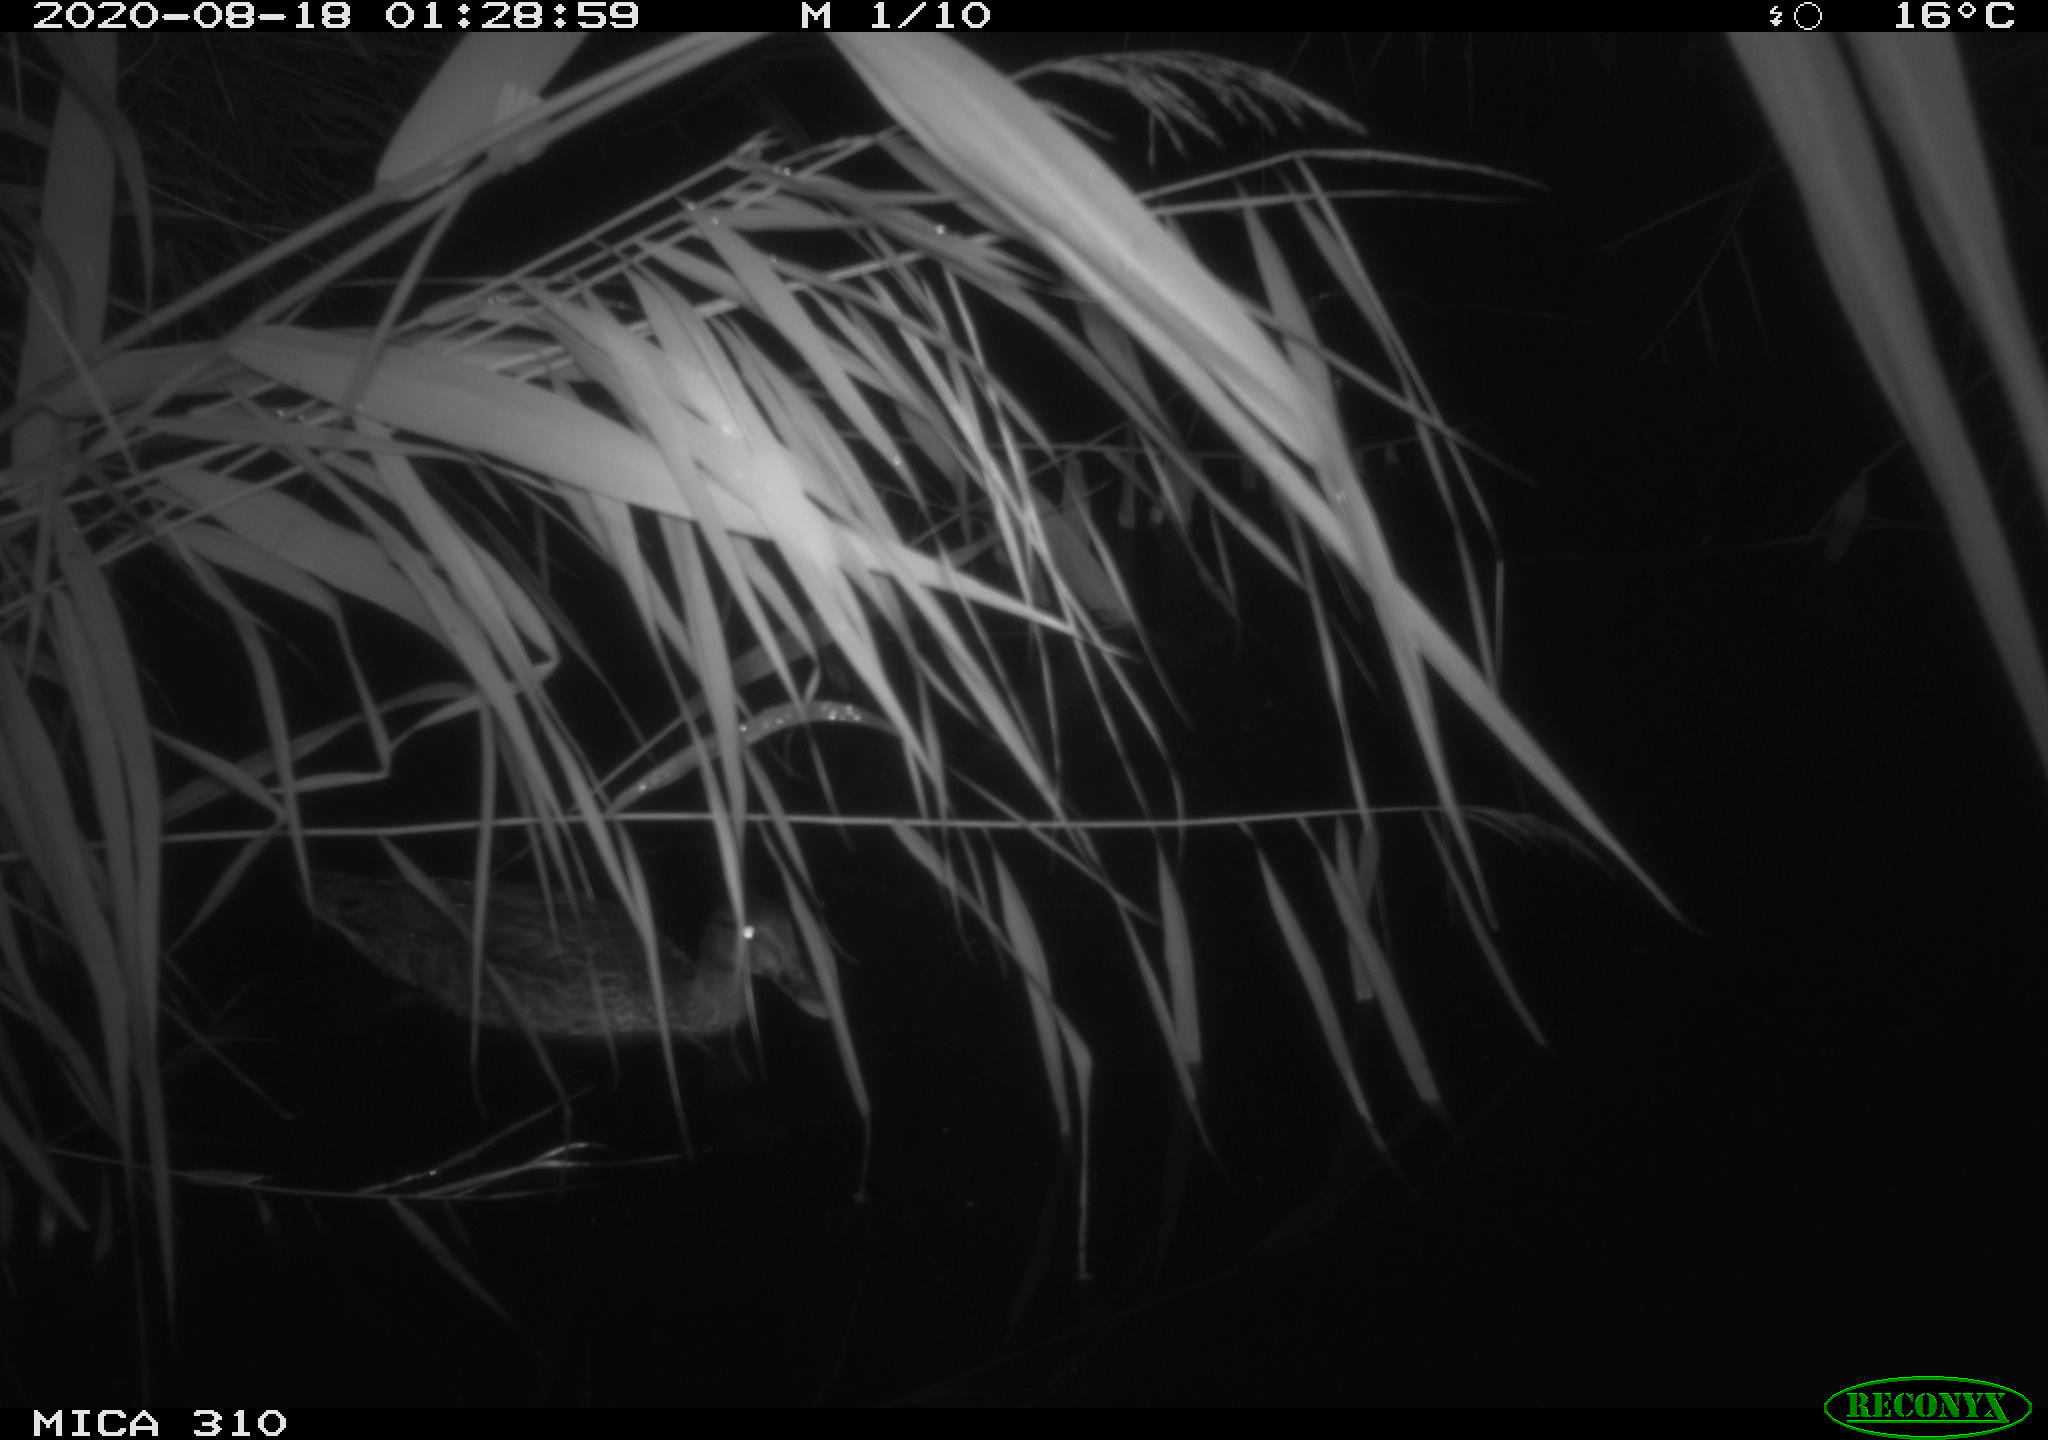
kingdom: Animalia
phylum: Chordata
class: Aves
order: Anseriformes
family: Anatidae
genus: Anas
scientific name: Anas platyrhynchos
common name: Mallard
